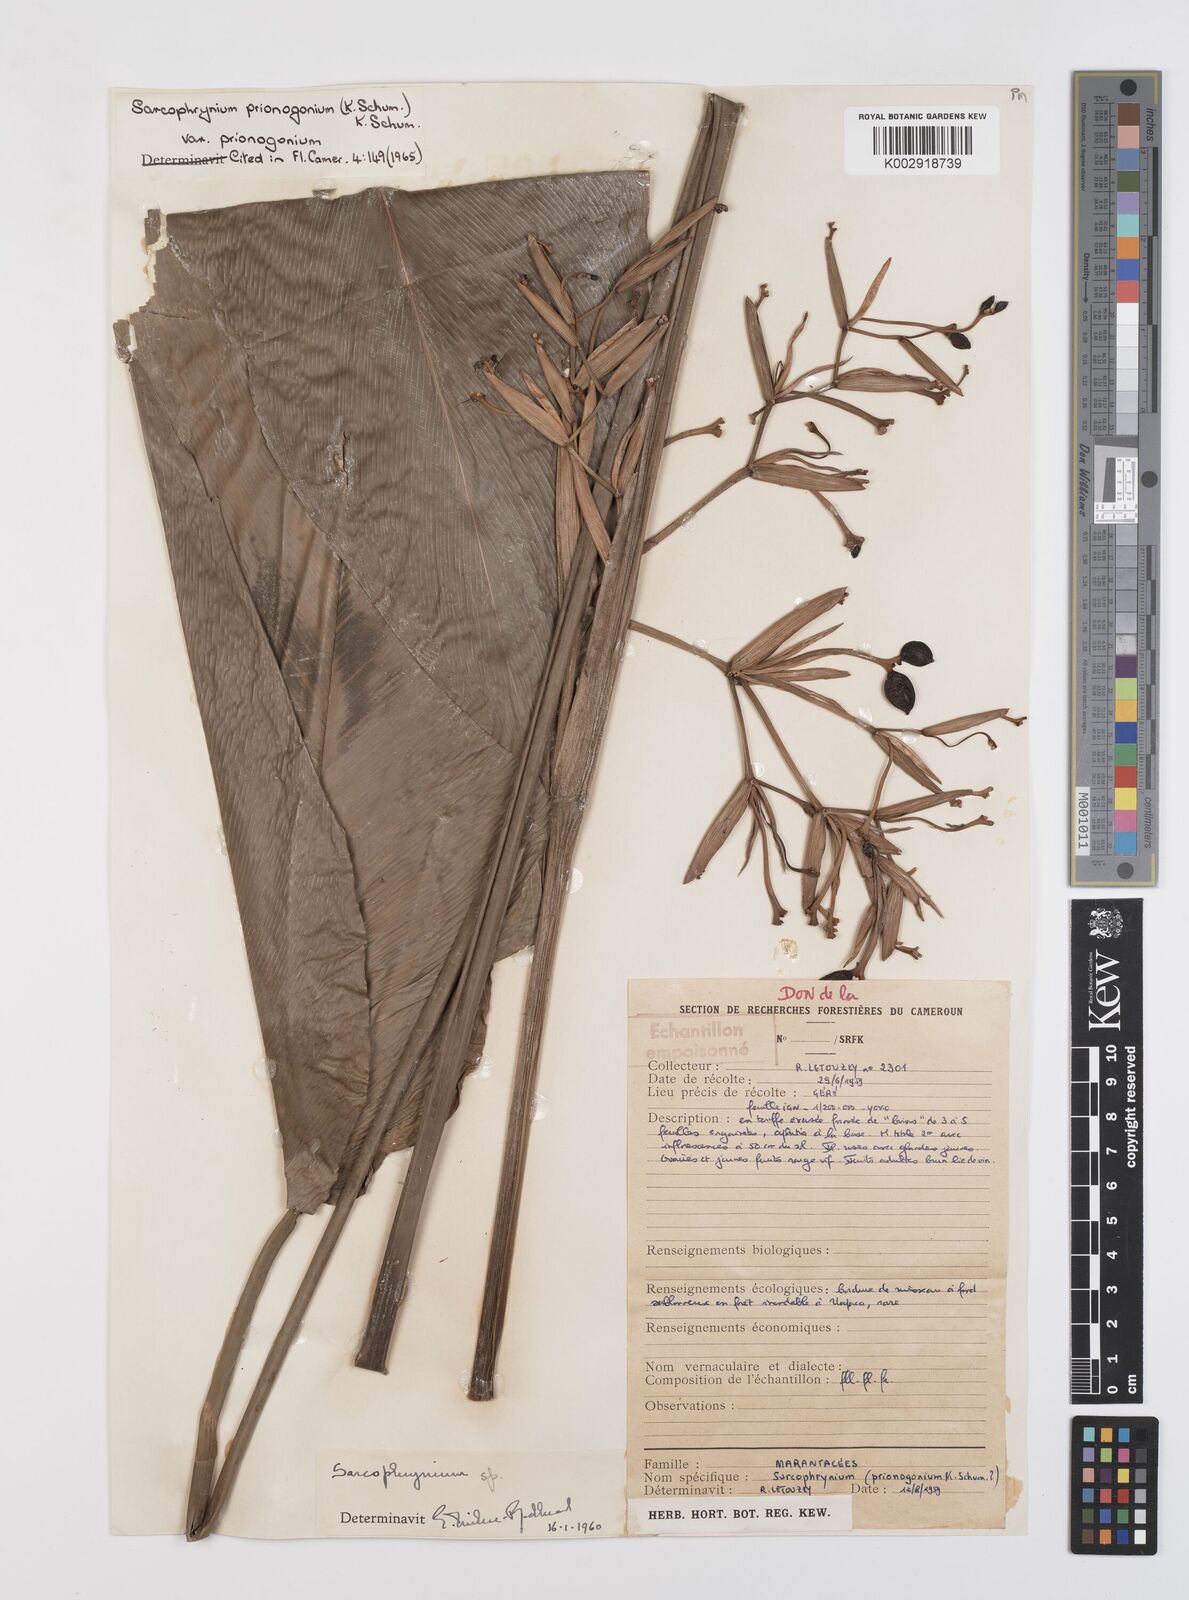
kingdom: Plantae
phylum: Tracheophyta
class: Liliopsida
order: Zingiberales
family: Marantaceae
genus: Sarcophrynium
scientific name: Sarcophrynium prionogonium
